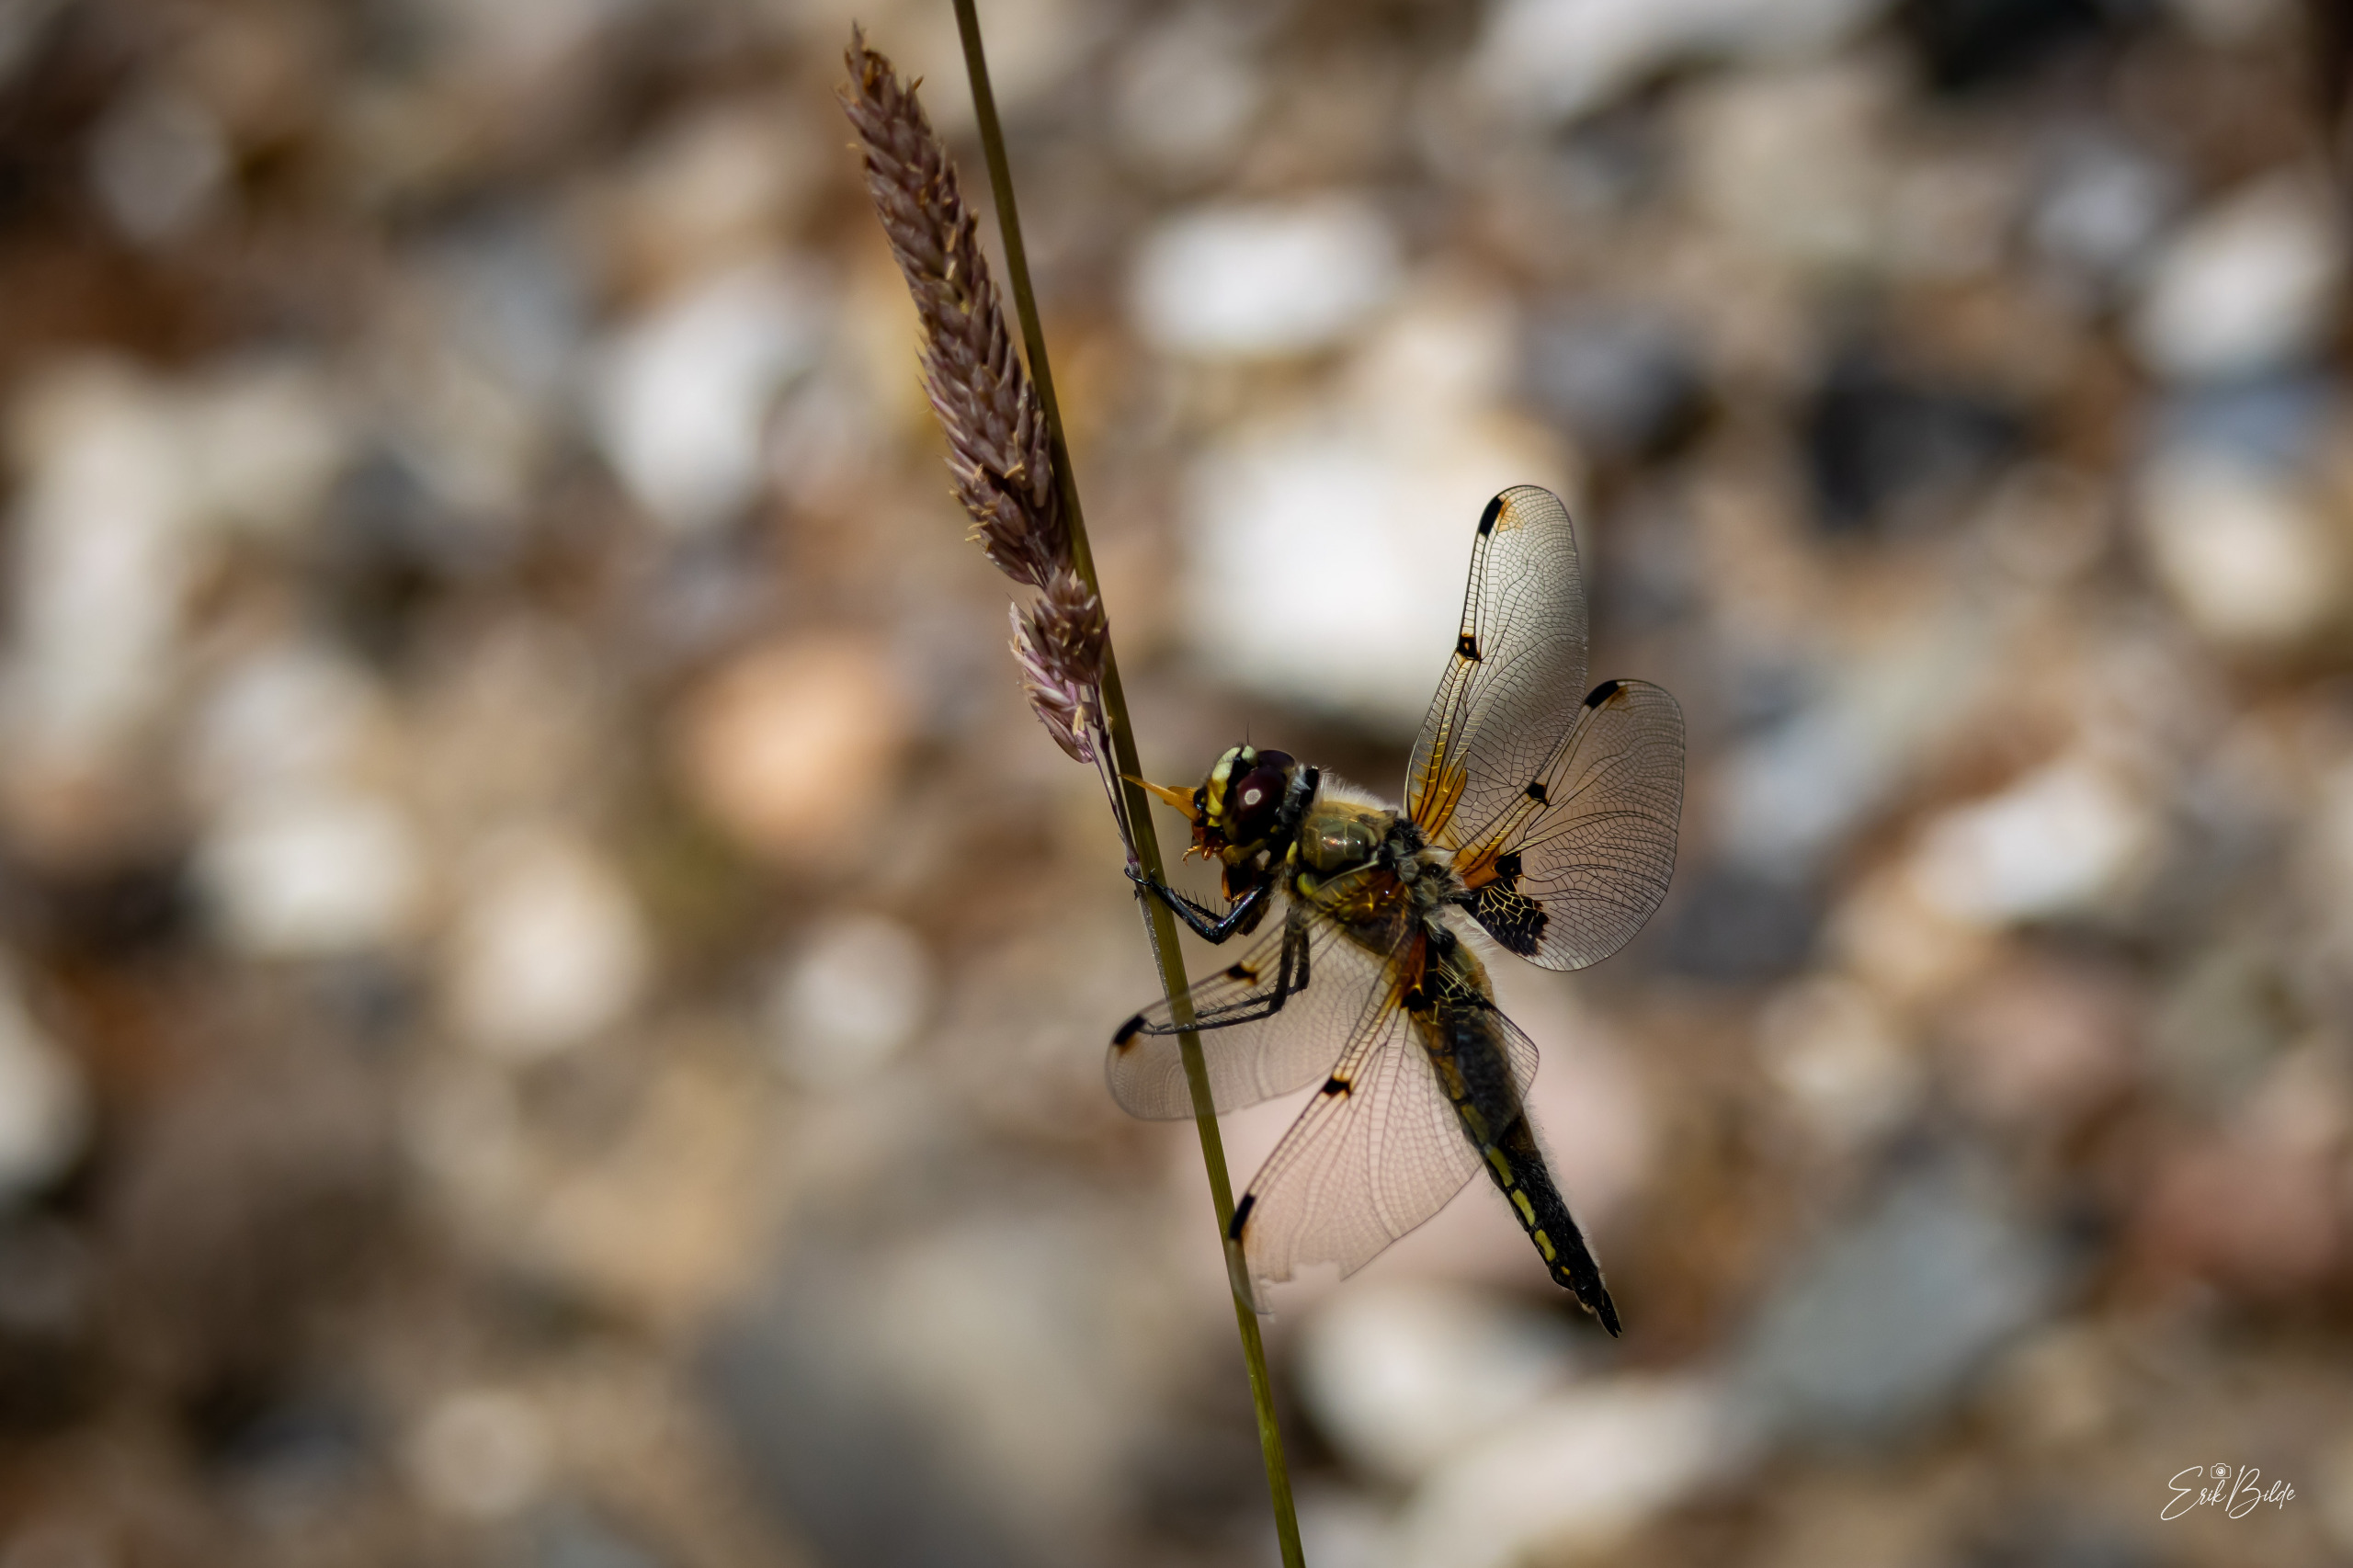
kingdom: Animalia
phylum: Arthropoda
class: Insecta
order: Odonata
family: Libellulidae
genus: Libellula
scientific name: Libellula quadrimaculata
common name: Fireplettet libel
